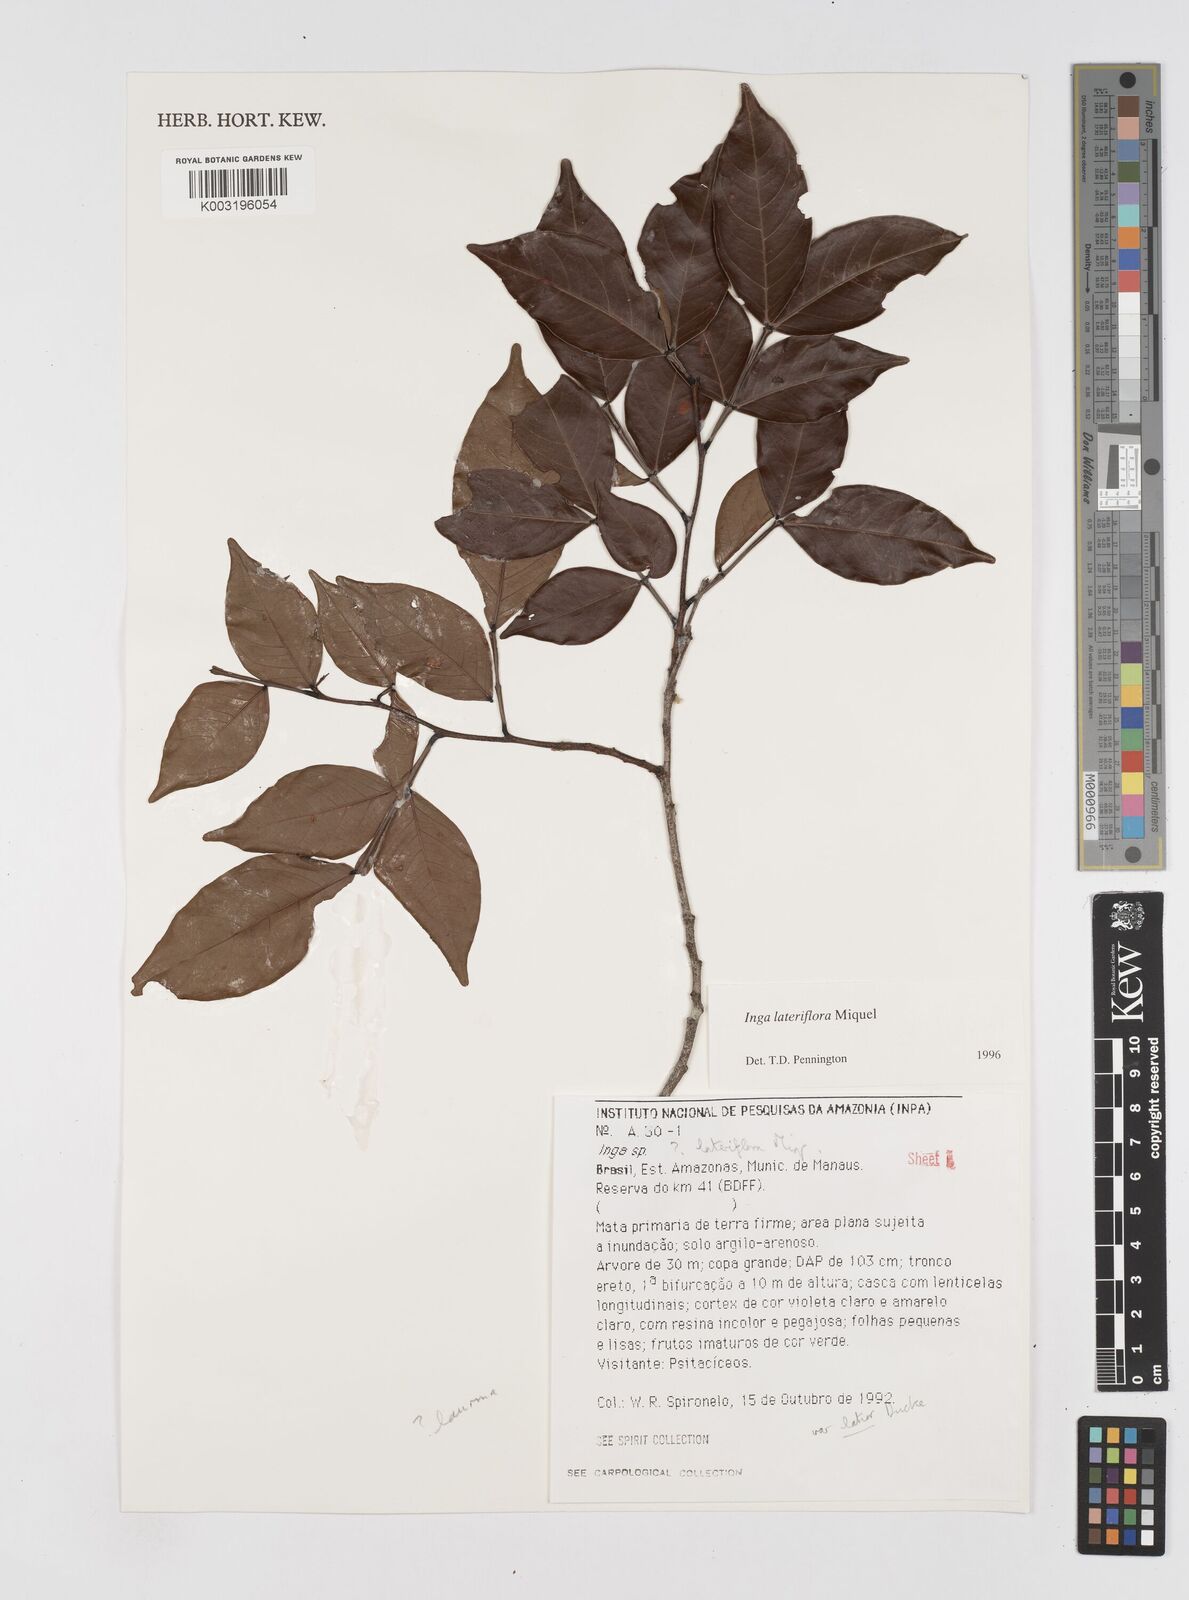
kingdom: Plantae
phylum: Tracheophyta
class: Magnoliopsida
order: Fabales
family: Fabaceae
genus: Inga
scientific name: Inga lateriflora
